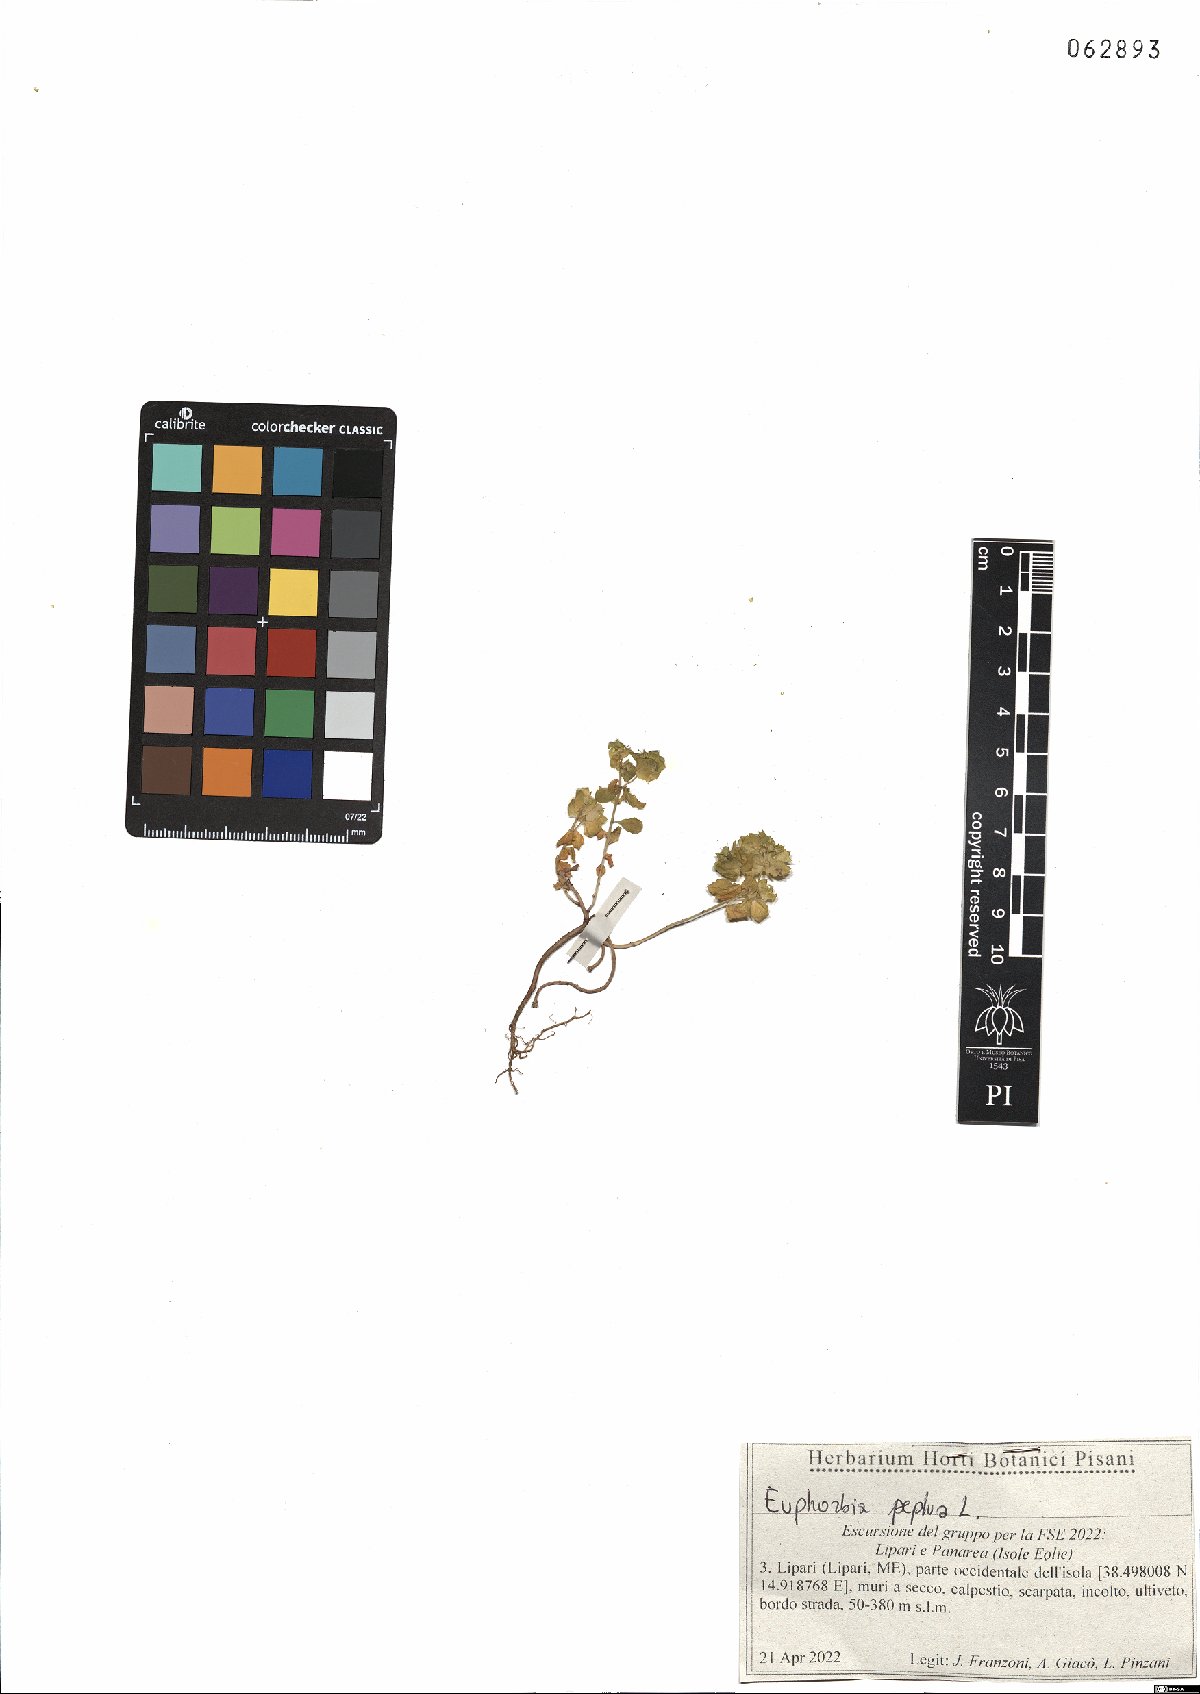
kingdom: Plantae
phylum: Tracheophyta
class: Magnoliopsida
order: Malpighiales
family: Euphorbiaceae
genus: Euphorbia
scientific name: Euphorbia peplus
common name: Petty spurge
